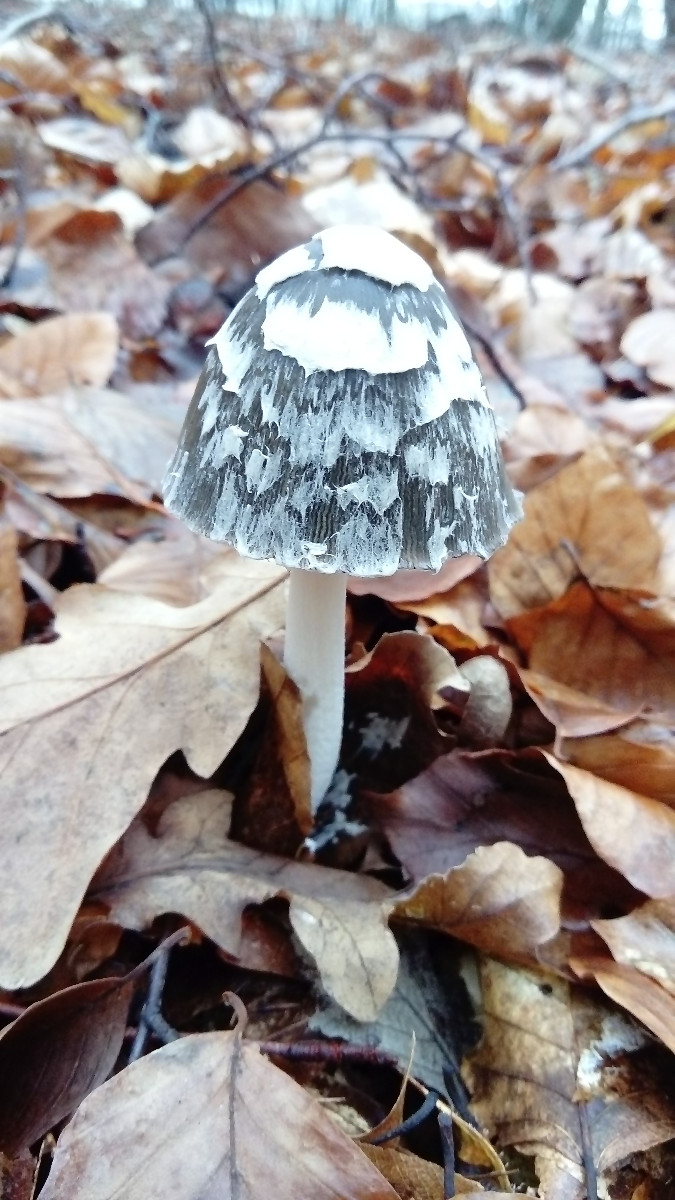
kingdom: Fungi
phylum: Basidiomycota
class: Agaricomycetes
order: Agaricales
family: Psathyrellaceae
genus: Coprinopsis
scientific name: Coprinopsis picacea
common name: skade-blækhat
